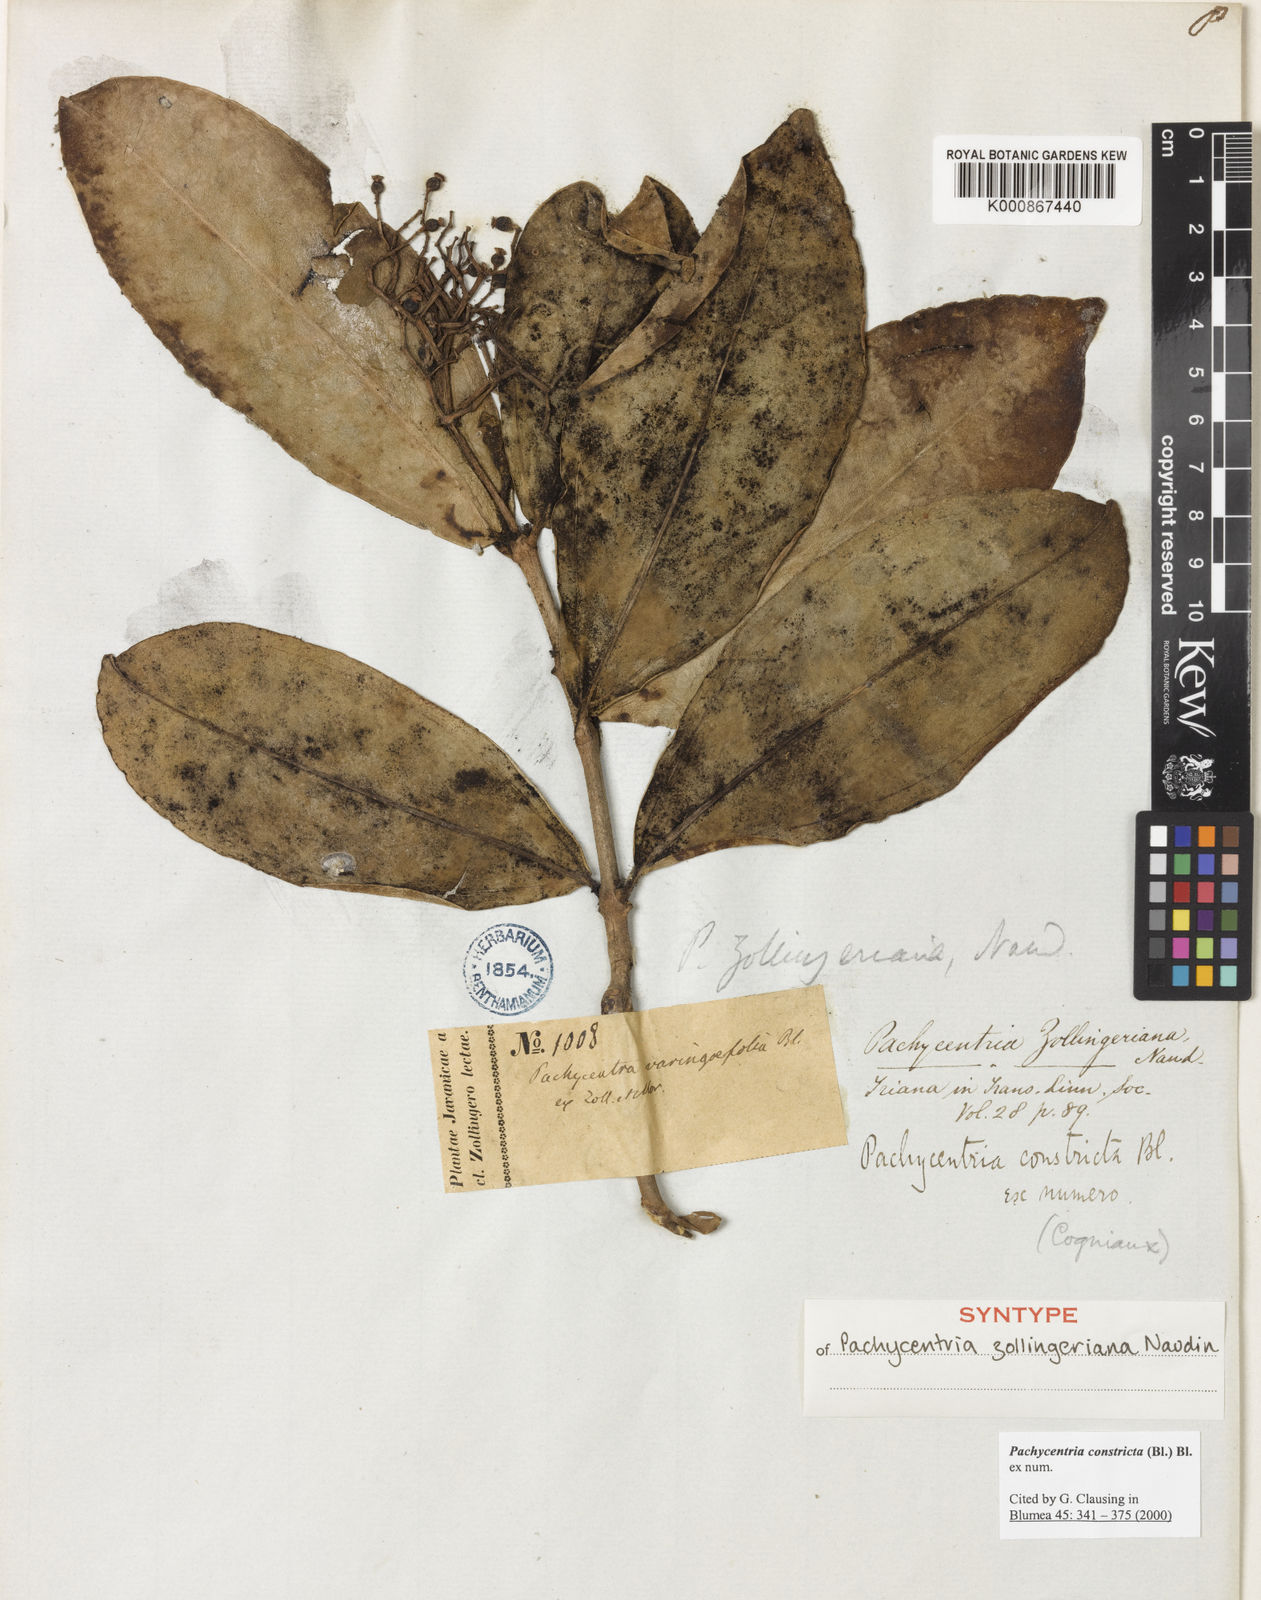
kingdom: Plantae
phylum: Tracheophyta
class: Magnoliopsida
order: Myrtales
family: Melastomataceae
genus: Pachycentria
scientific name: Pachycentria constricta
